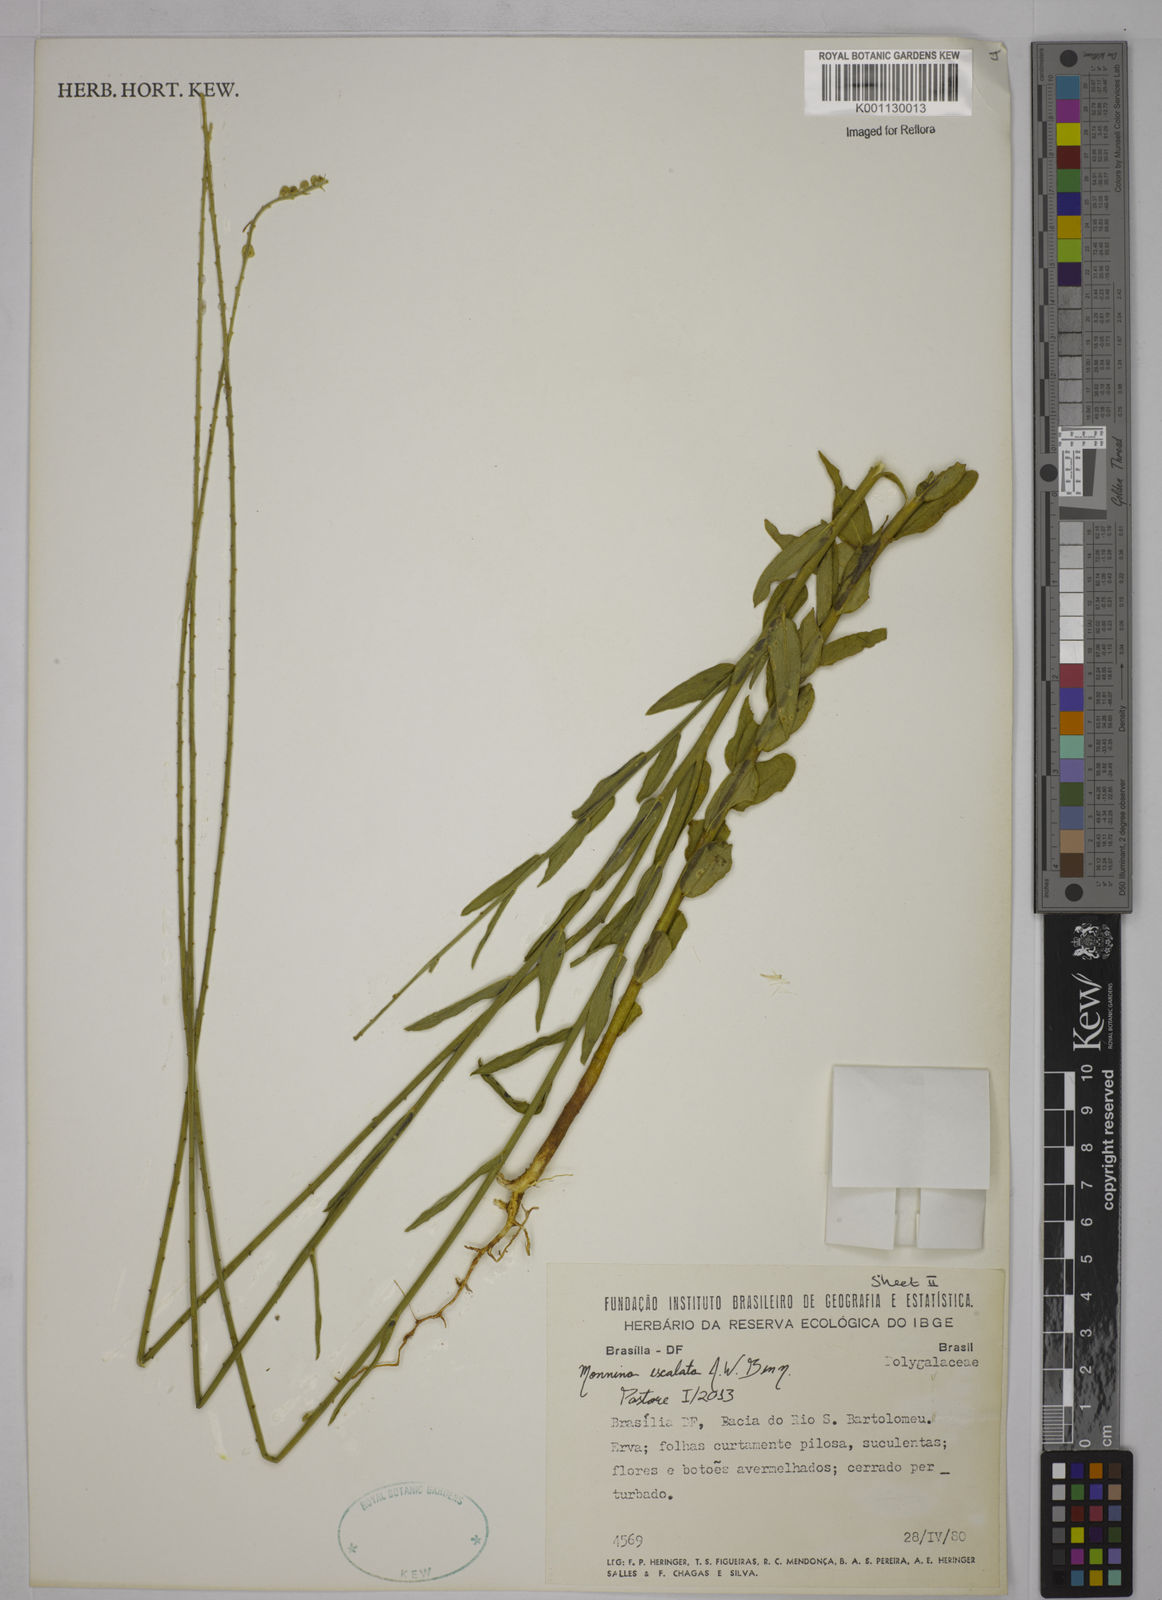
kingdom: Plantae
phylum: Tracheophyta
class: Magnoliopsida
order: Fabales
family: Polygalaceae
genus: Monnina
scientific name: Monnina exalata
